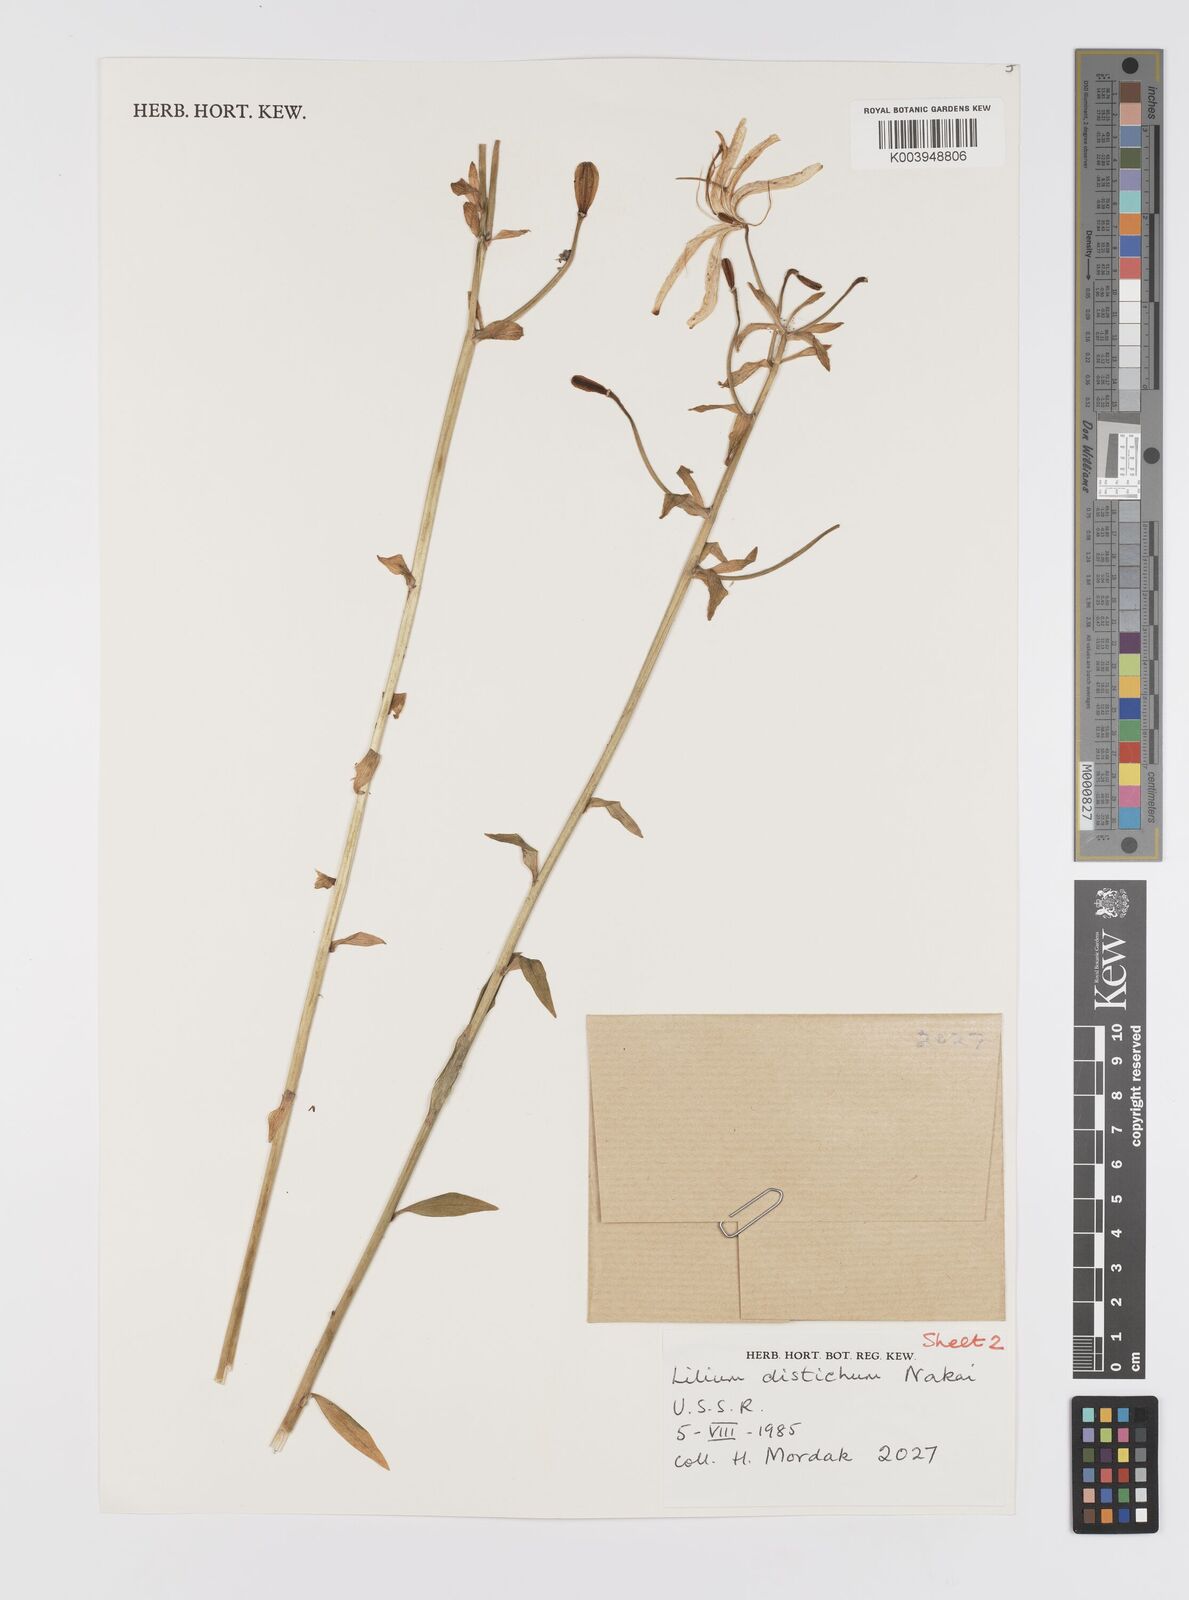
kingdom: Plantae
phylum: Tracheophyta
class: Liliopsida
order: Liliales
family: Liliaceae
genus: Lilium
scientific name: Lilium distichum
